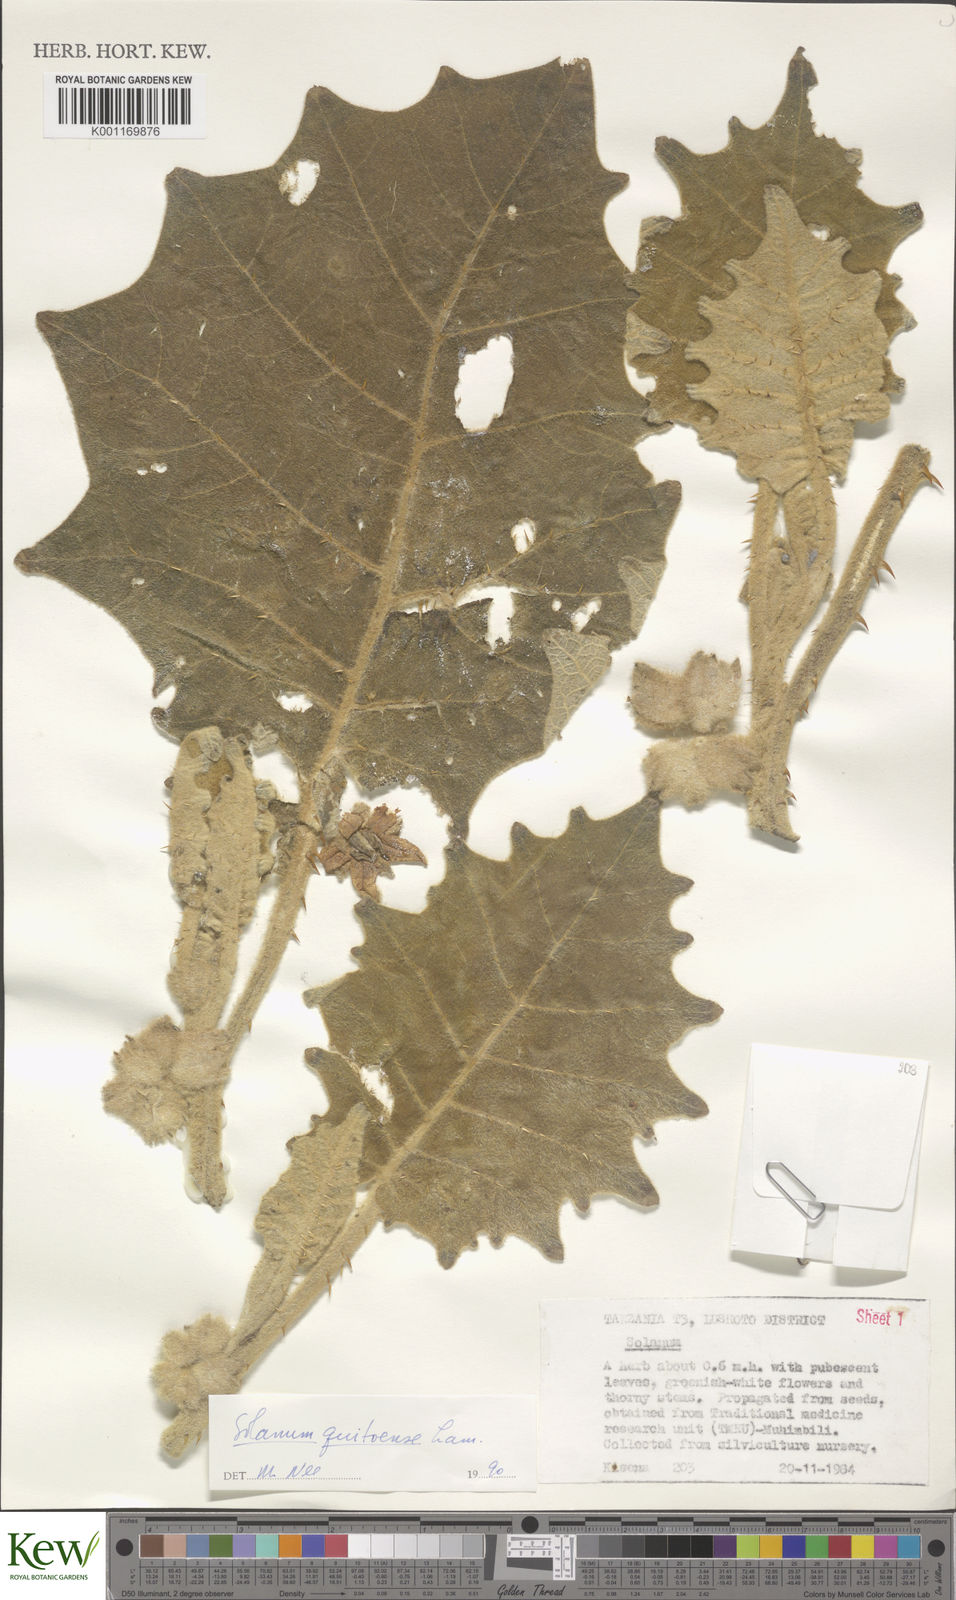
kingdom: Plantae
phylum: Tracheophyta
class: Magnoliopsida
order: Solanales
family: Solanaceae
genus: Solanum
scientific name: Solanum quitoense
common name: Quito-orange
